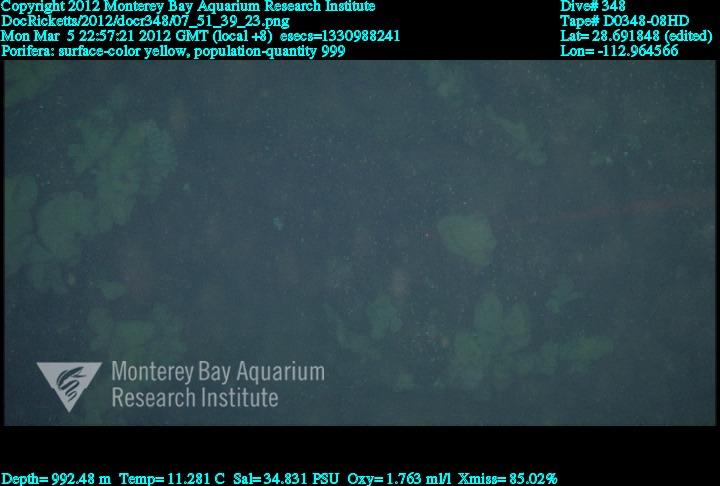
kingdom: Animalia
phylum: Porifera
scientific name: Porifera
